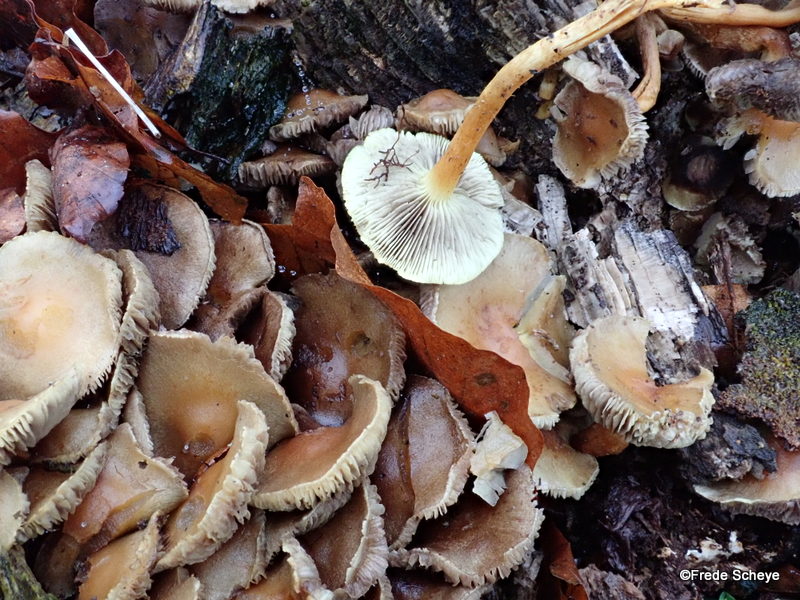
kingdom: Fungi
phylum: Basidiomycota
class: Agaricomycetes
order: Agaricales
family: Strophariaceae
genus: Hypholoma
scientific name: Hypholoma fasciculare
